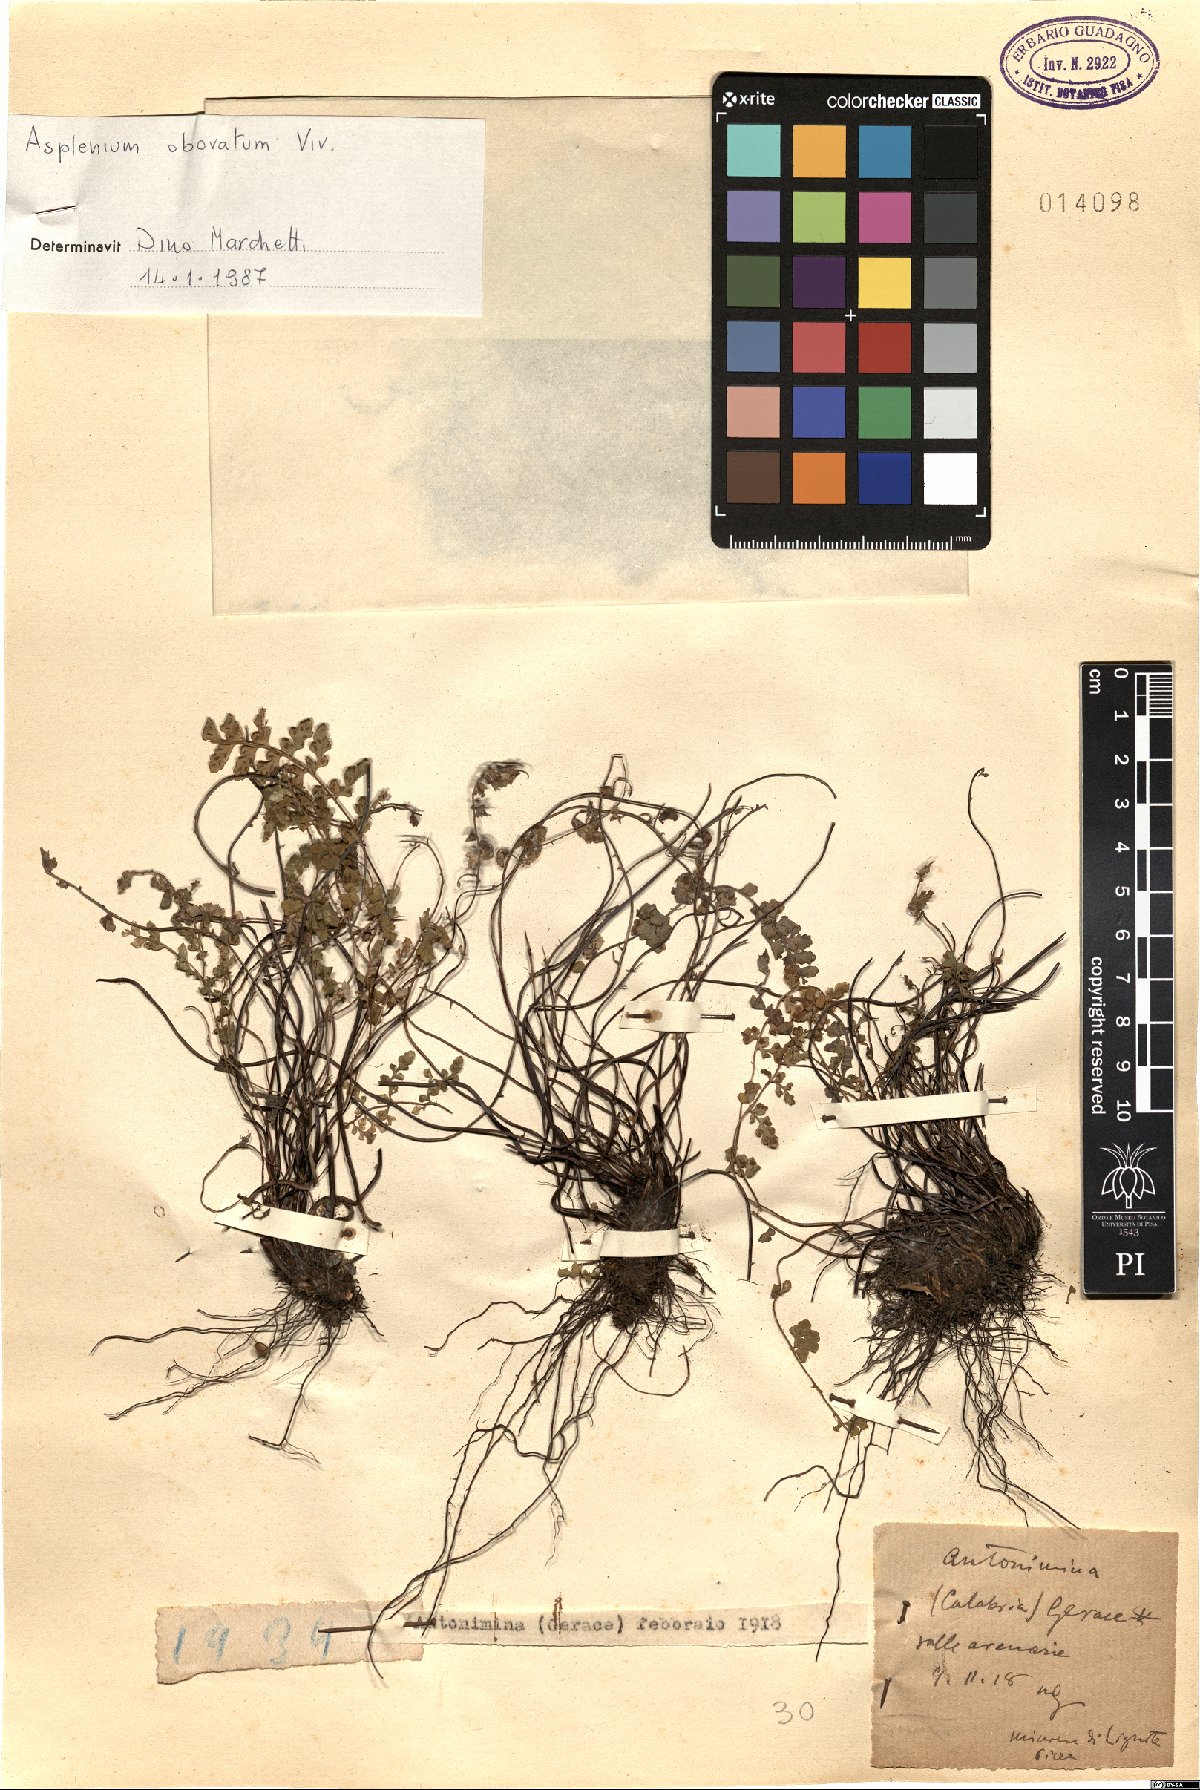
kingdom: Plantae
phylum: Tracheophyta
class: Polypodiopsida
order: Polypodiales
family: Aspleniaceae
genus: Asplenium
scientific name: Asplenium obovatum
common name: Lanceolate spleenwort
